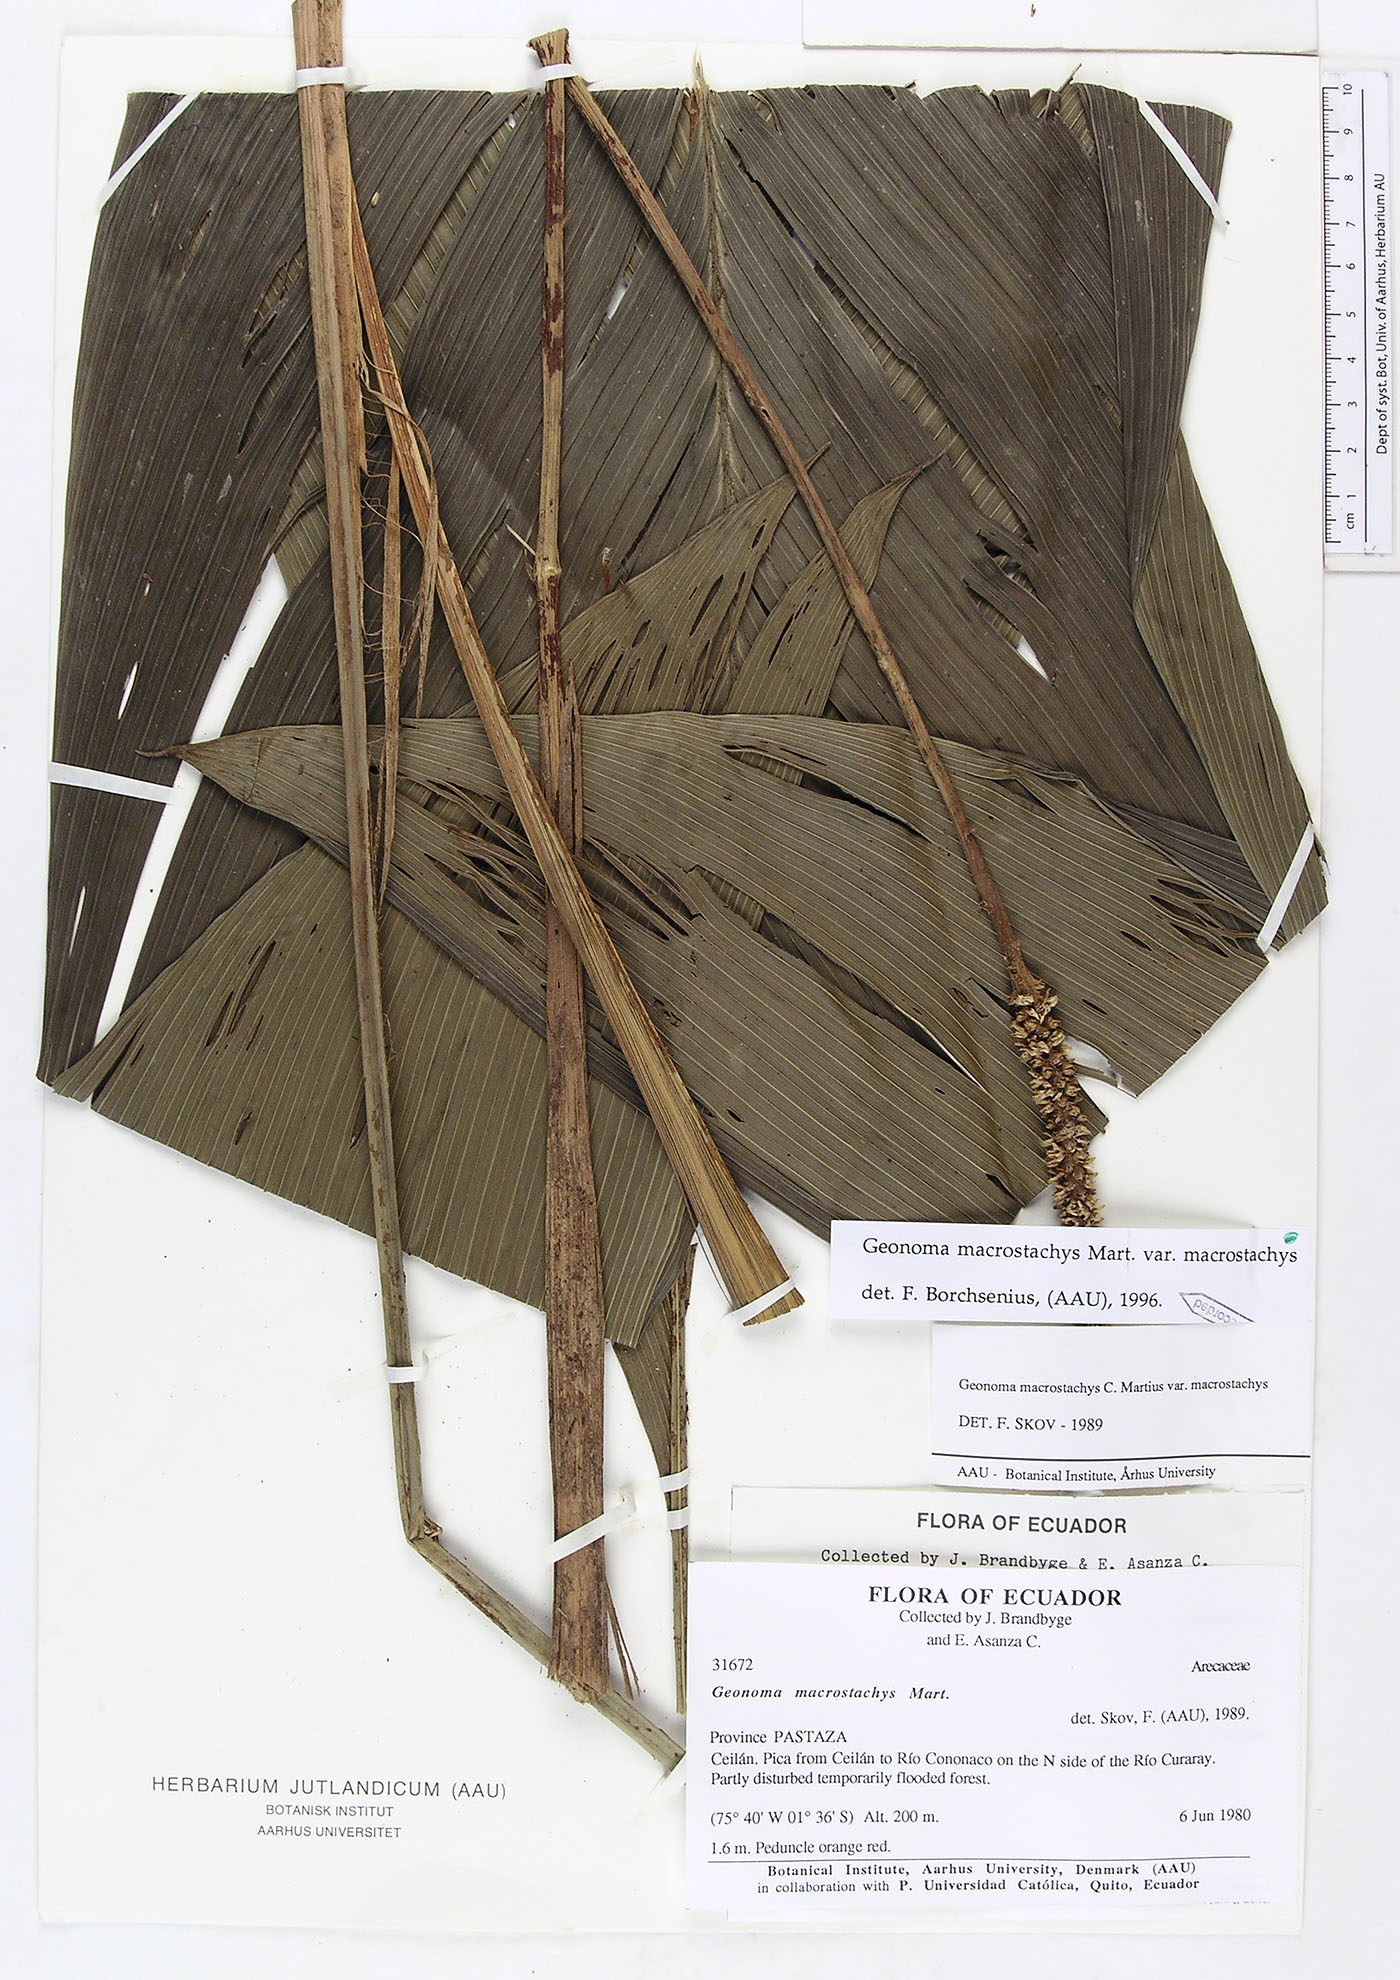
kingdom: Plantae
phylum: Tracheophyta
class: Liliopsida
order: Arecales
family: Arecaceae
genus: Geonoma
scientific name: Geonoma macrostachys
